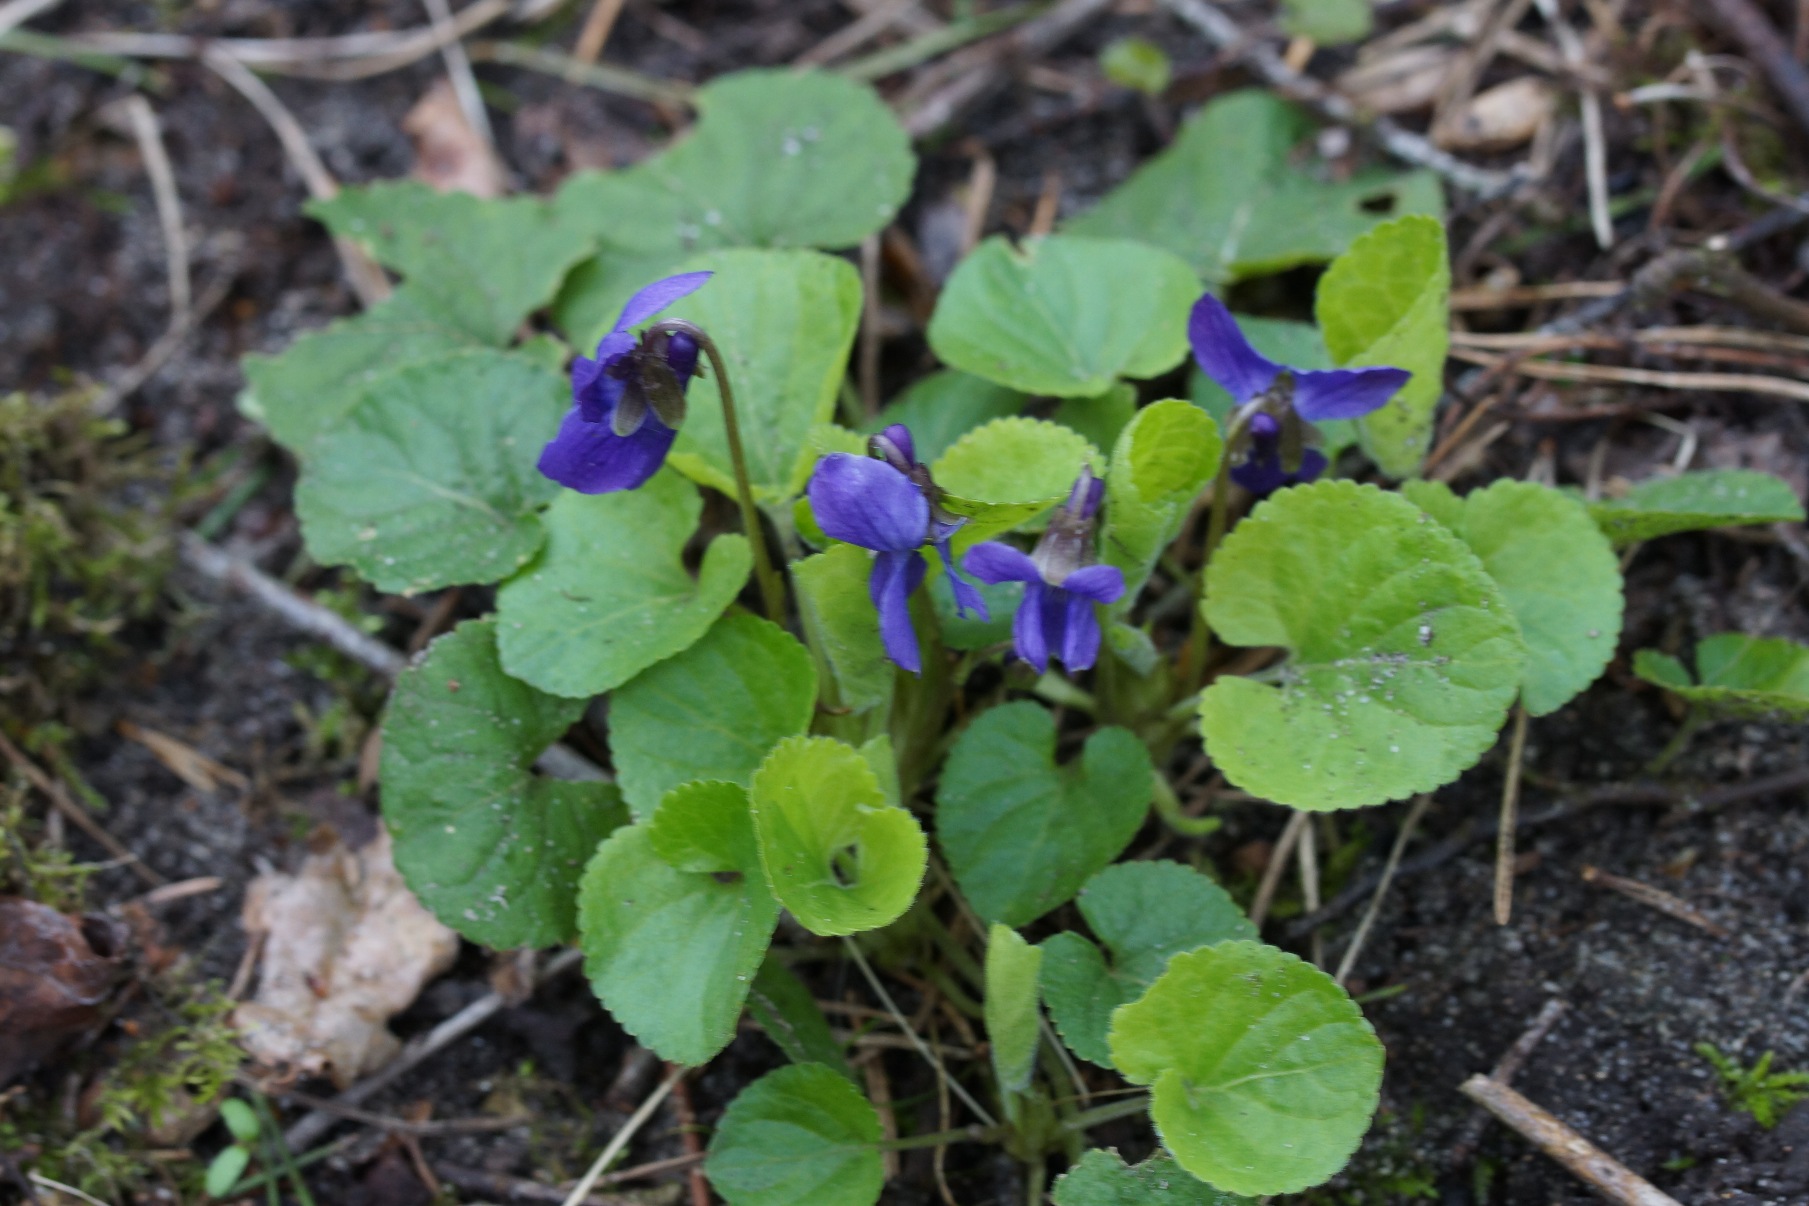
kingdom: Plantae
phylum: Tracheophyta
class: Magnoliopsida
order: Malpighiales
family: Violaceae
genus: Viola
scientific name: Viola odorata
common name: Marts-viol
